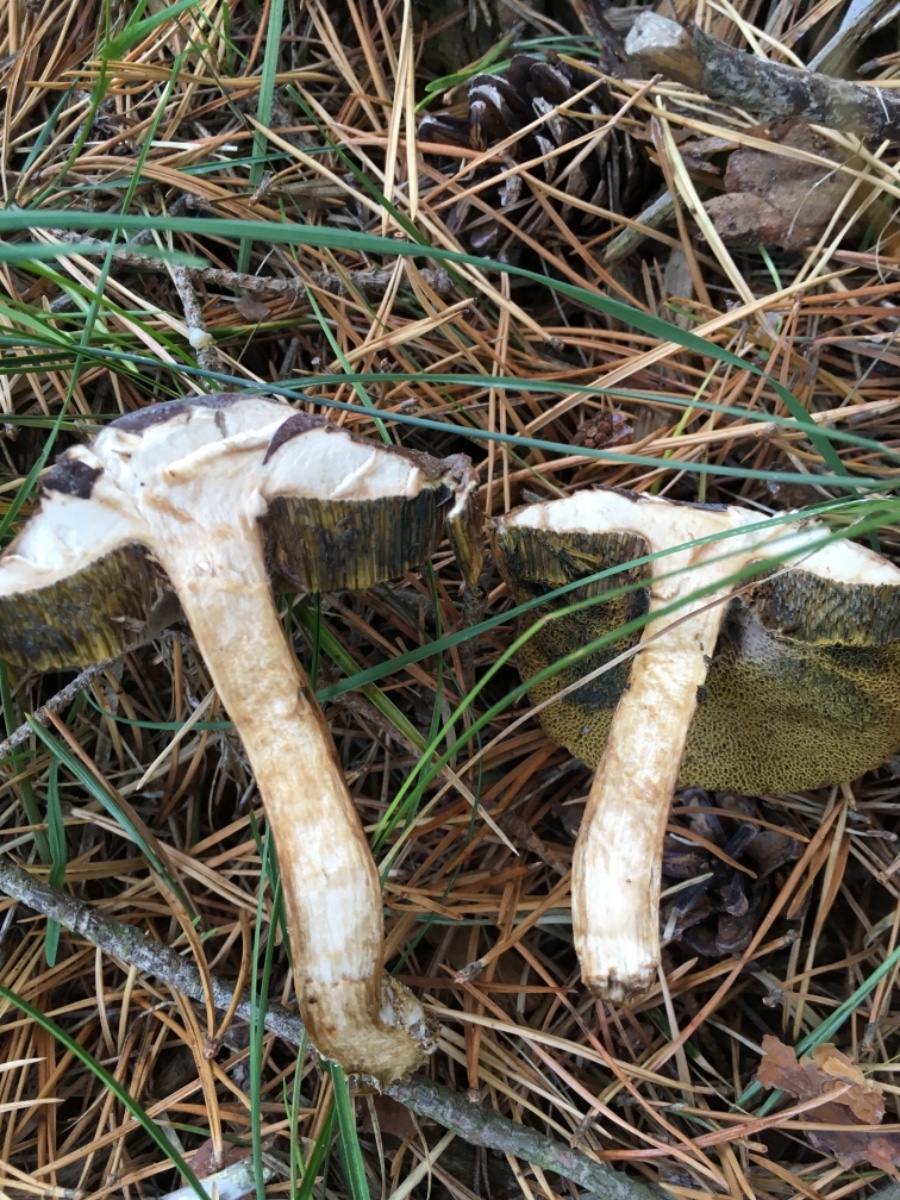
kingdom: Fungi
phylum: Basidiomycota
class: Agaricomycetes
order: Boletales
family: Boletaceae
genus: Imleria
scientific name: Imleria badia
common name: brunstokket rørhat
